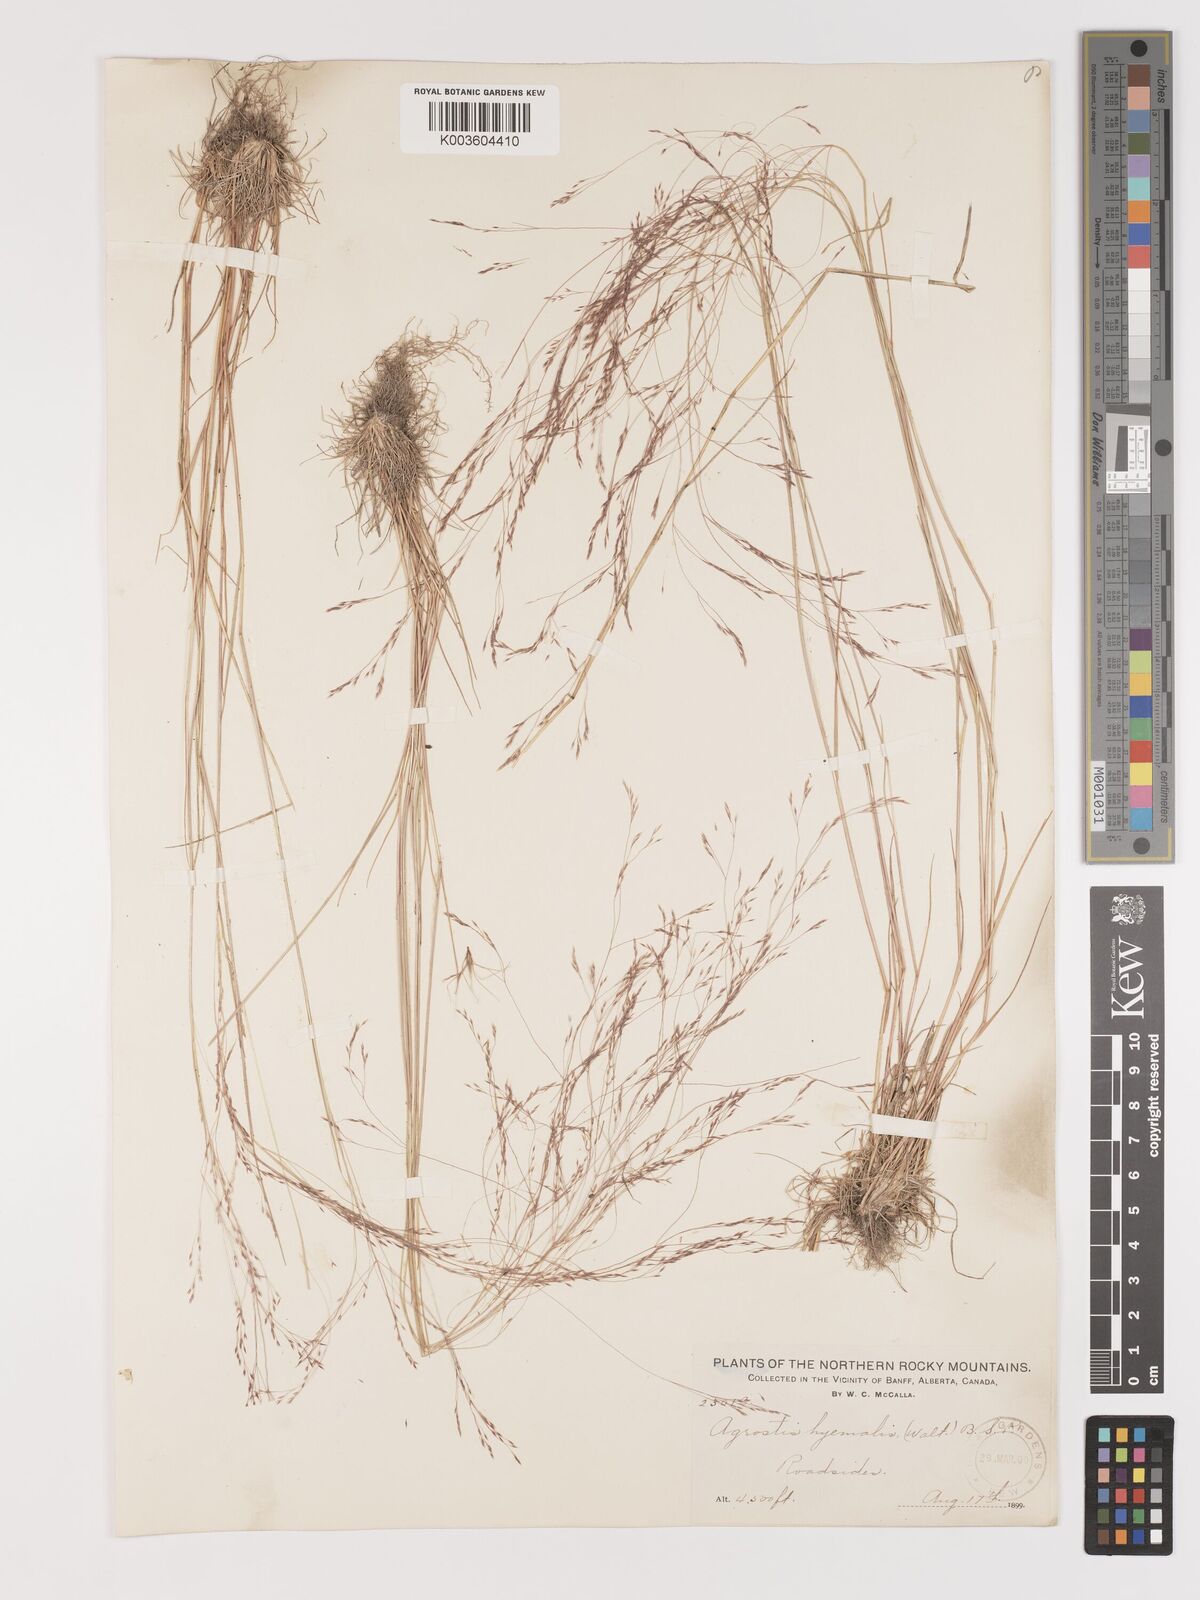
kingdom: Plantae
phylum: Tracheophyta
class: Liliopsida
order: Poales
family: Poaceae
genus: Agrostis
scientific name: Agrostis hyemalis
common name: Small bent
